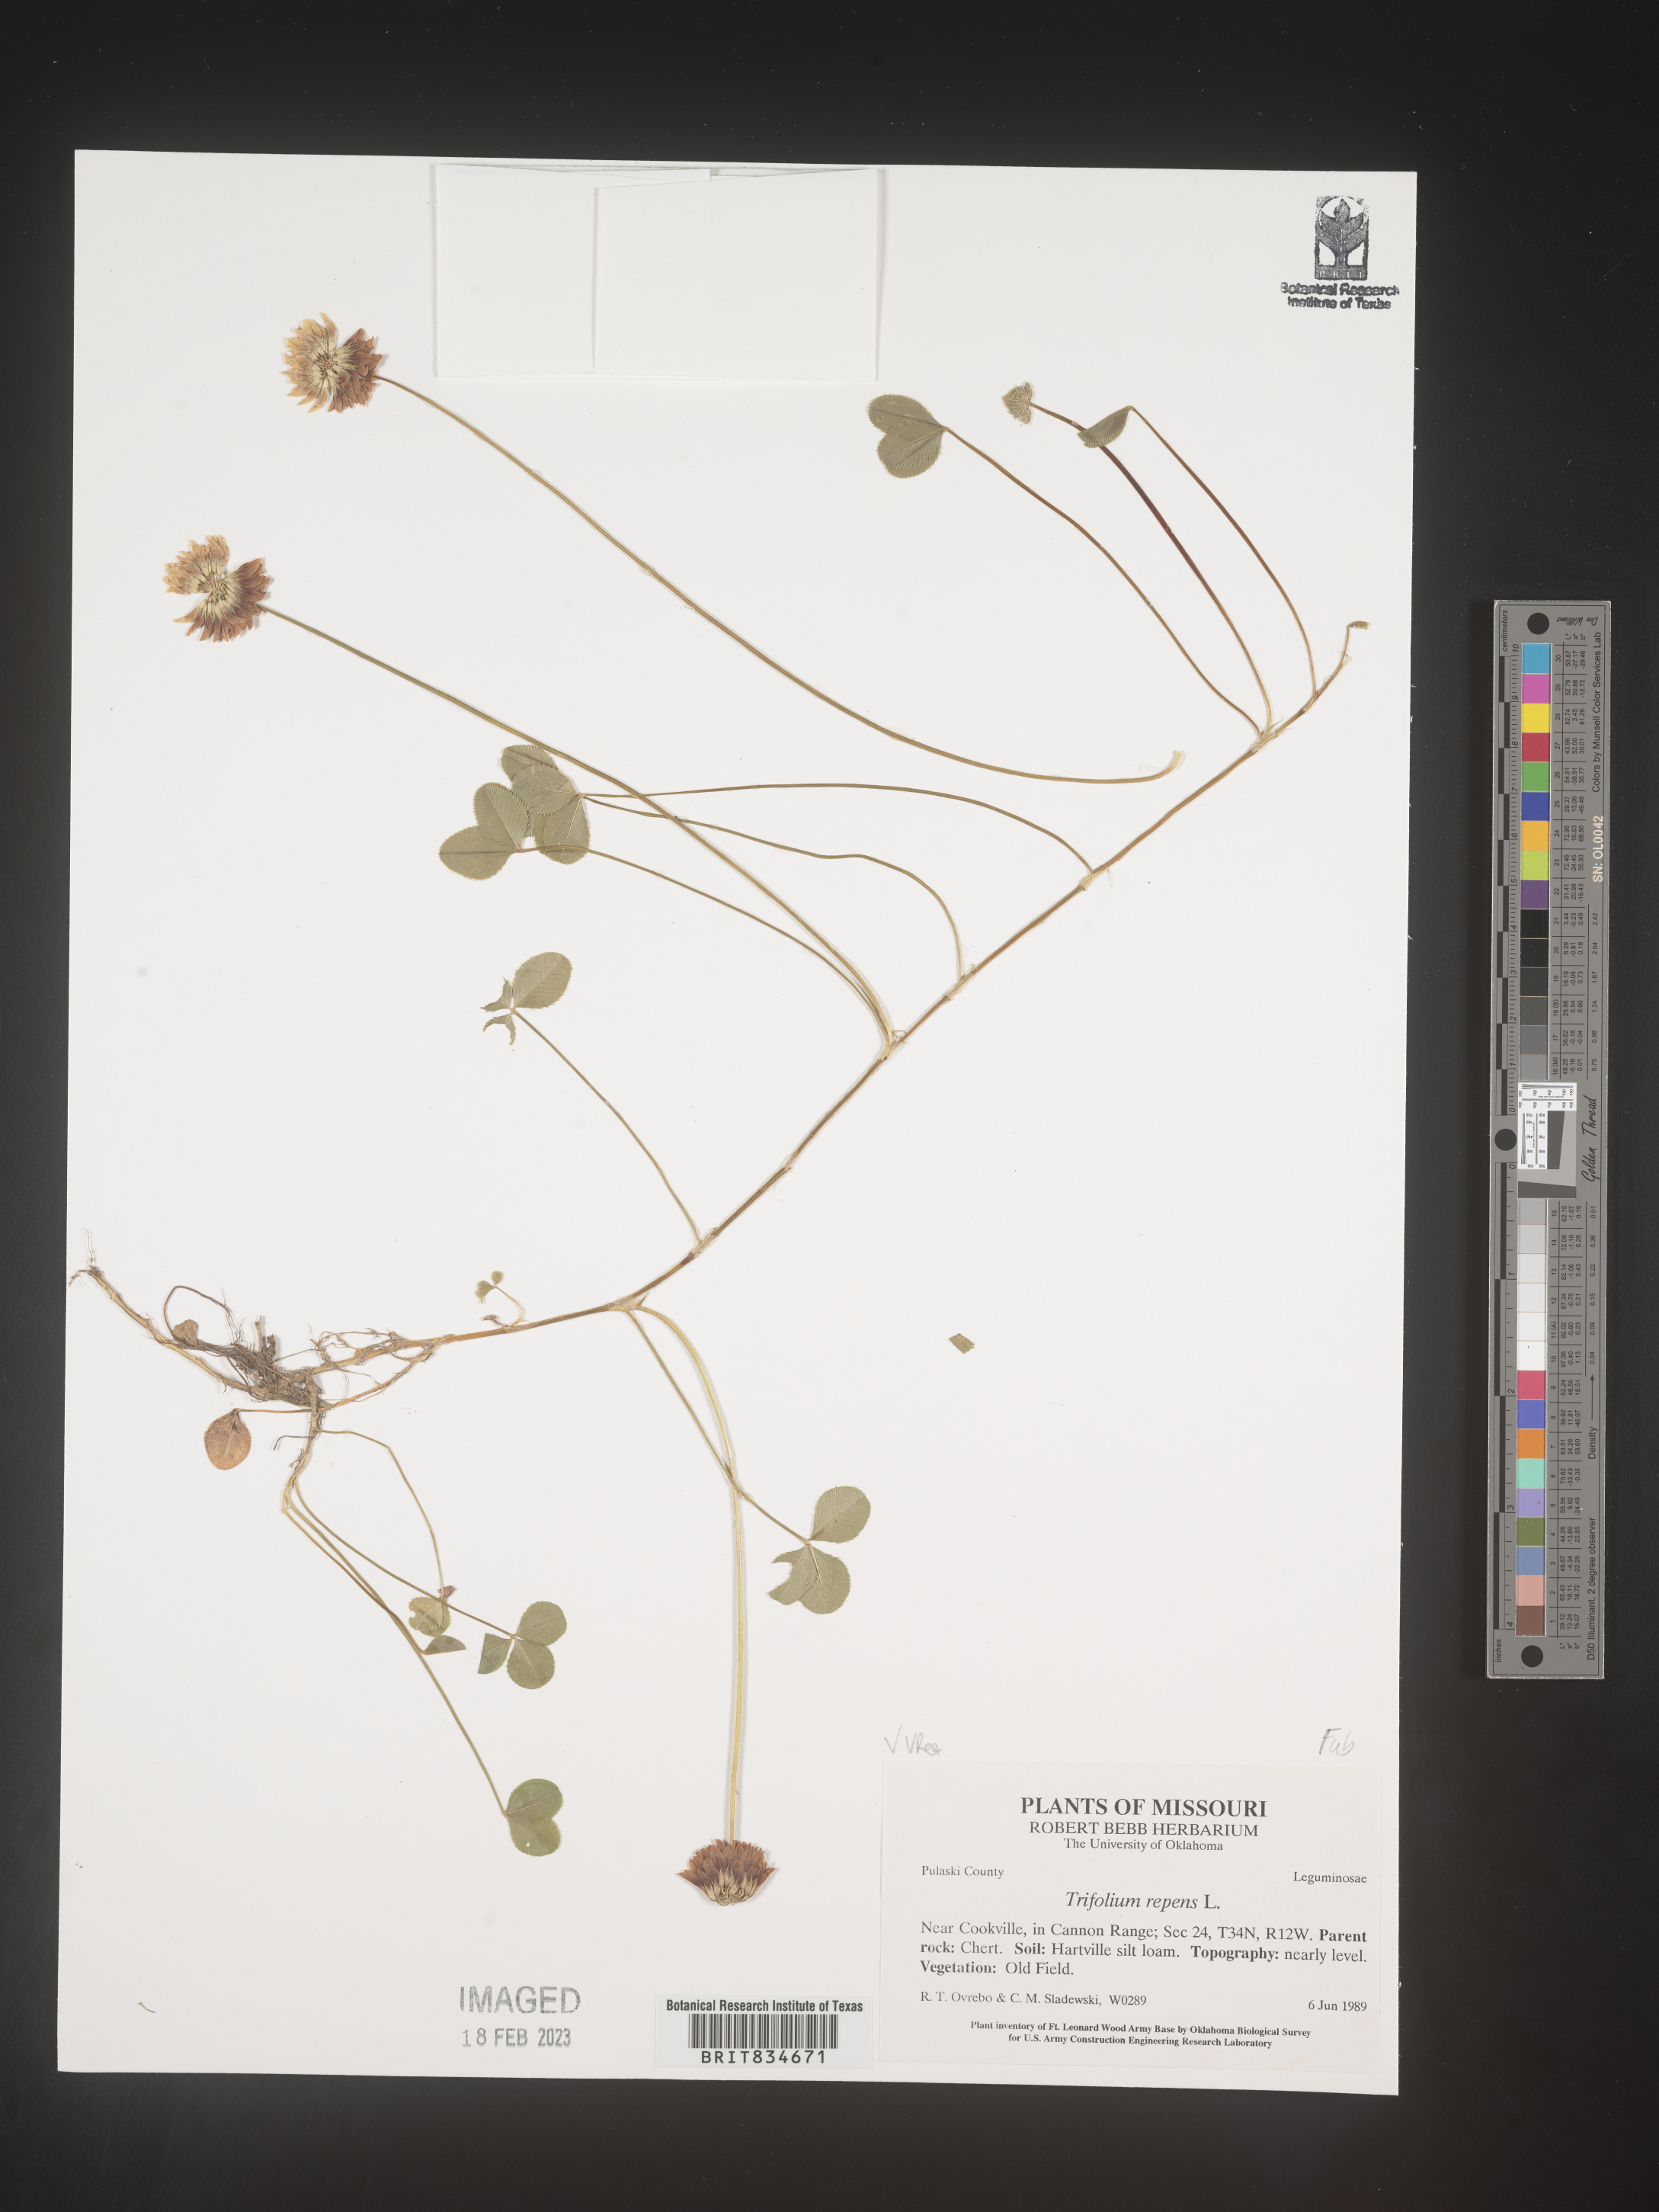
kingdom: Plantae
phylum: Tracheophyta
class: Magnoliopsida
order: Fabales
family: Fabaceae
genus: Trifolium
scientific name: Trifolium repens
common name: White clover
